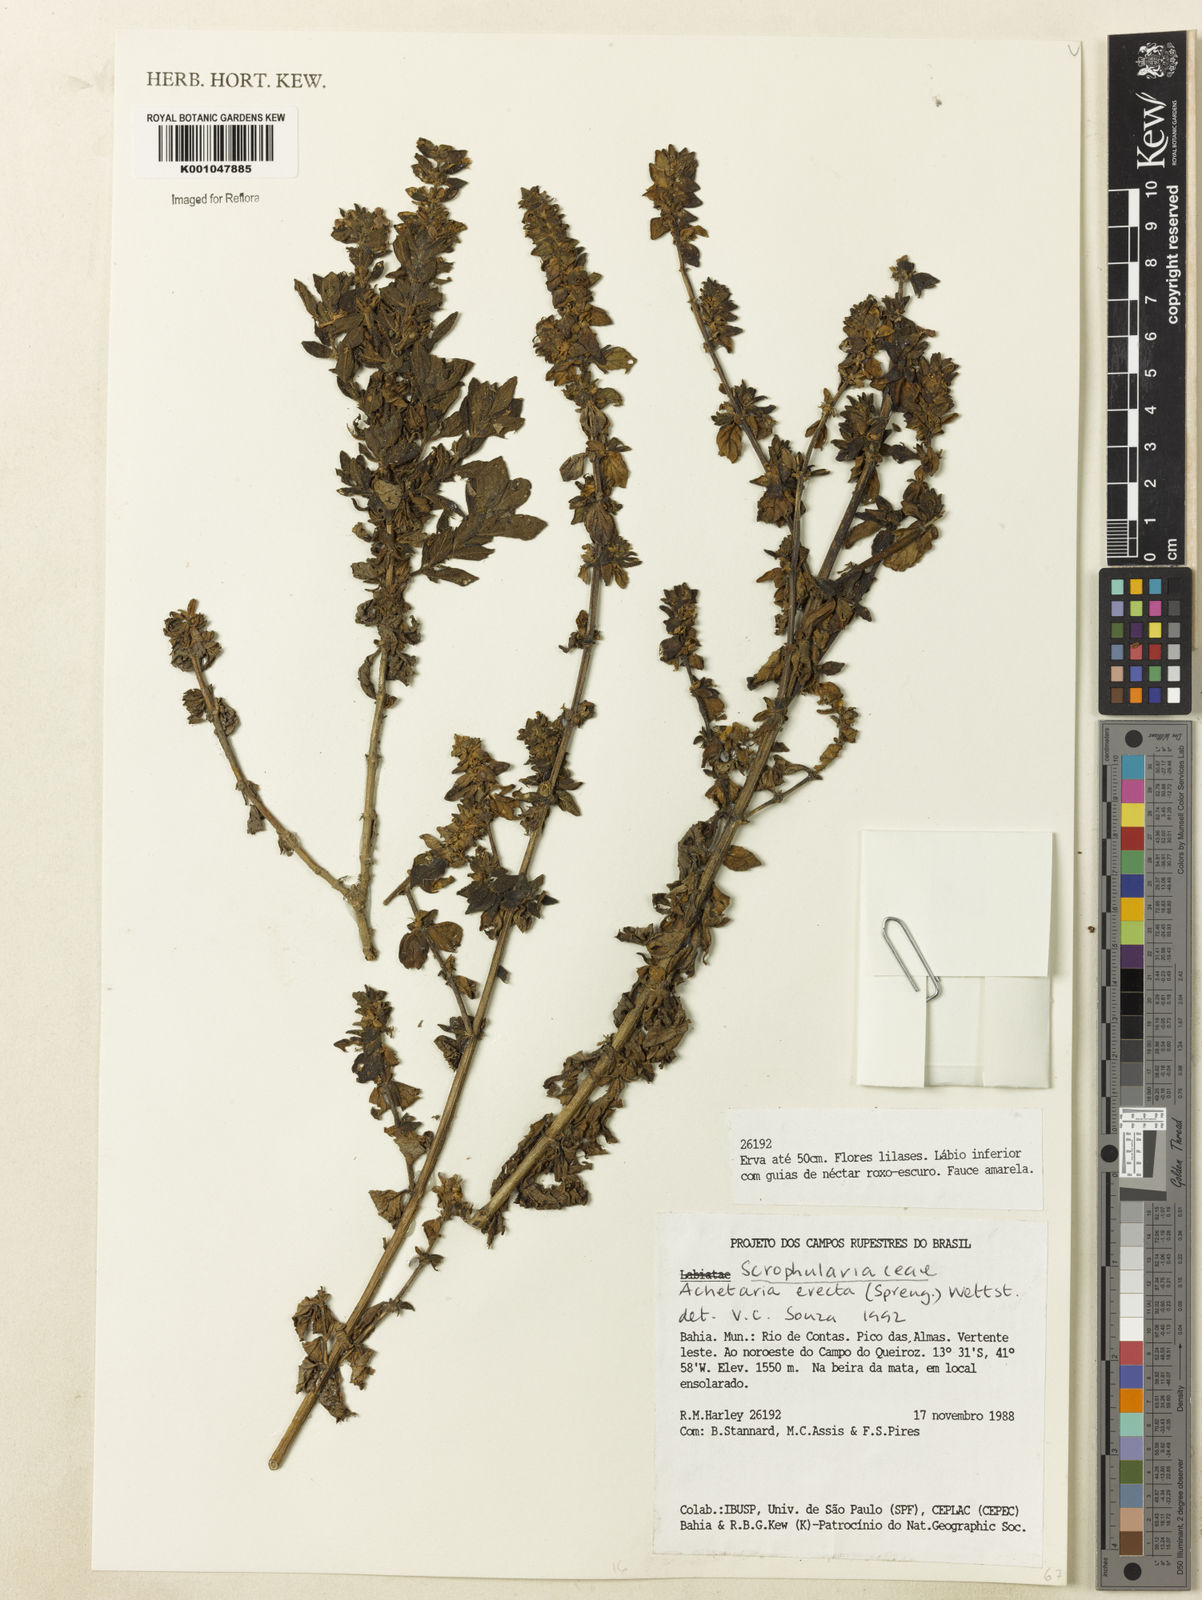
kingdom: Plantae
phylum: Tracheophyta
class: Magnoliopsida
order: Lamiales
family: Plantaginaceae
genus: Matourea
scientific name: Matourea erecta
